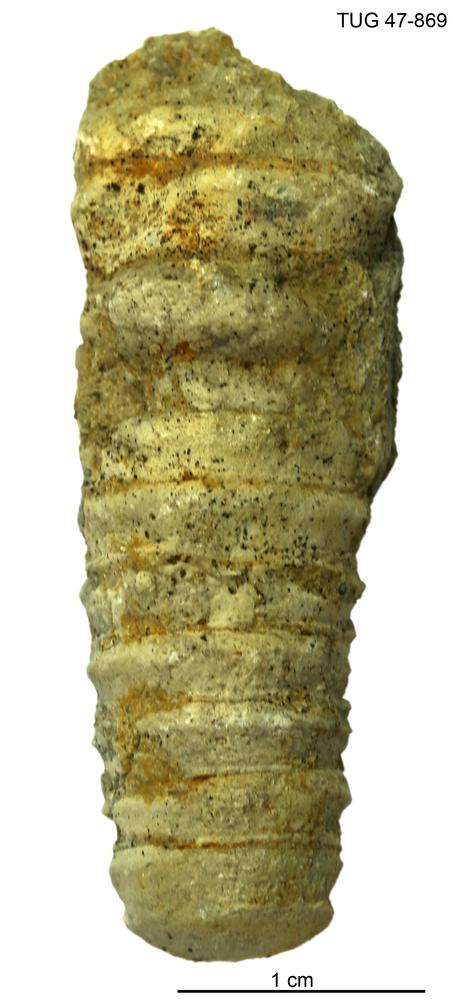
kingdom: Animalia
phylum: Mollusca
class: Cephalopoda
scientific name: Cephalopoda
